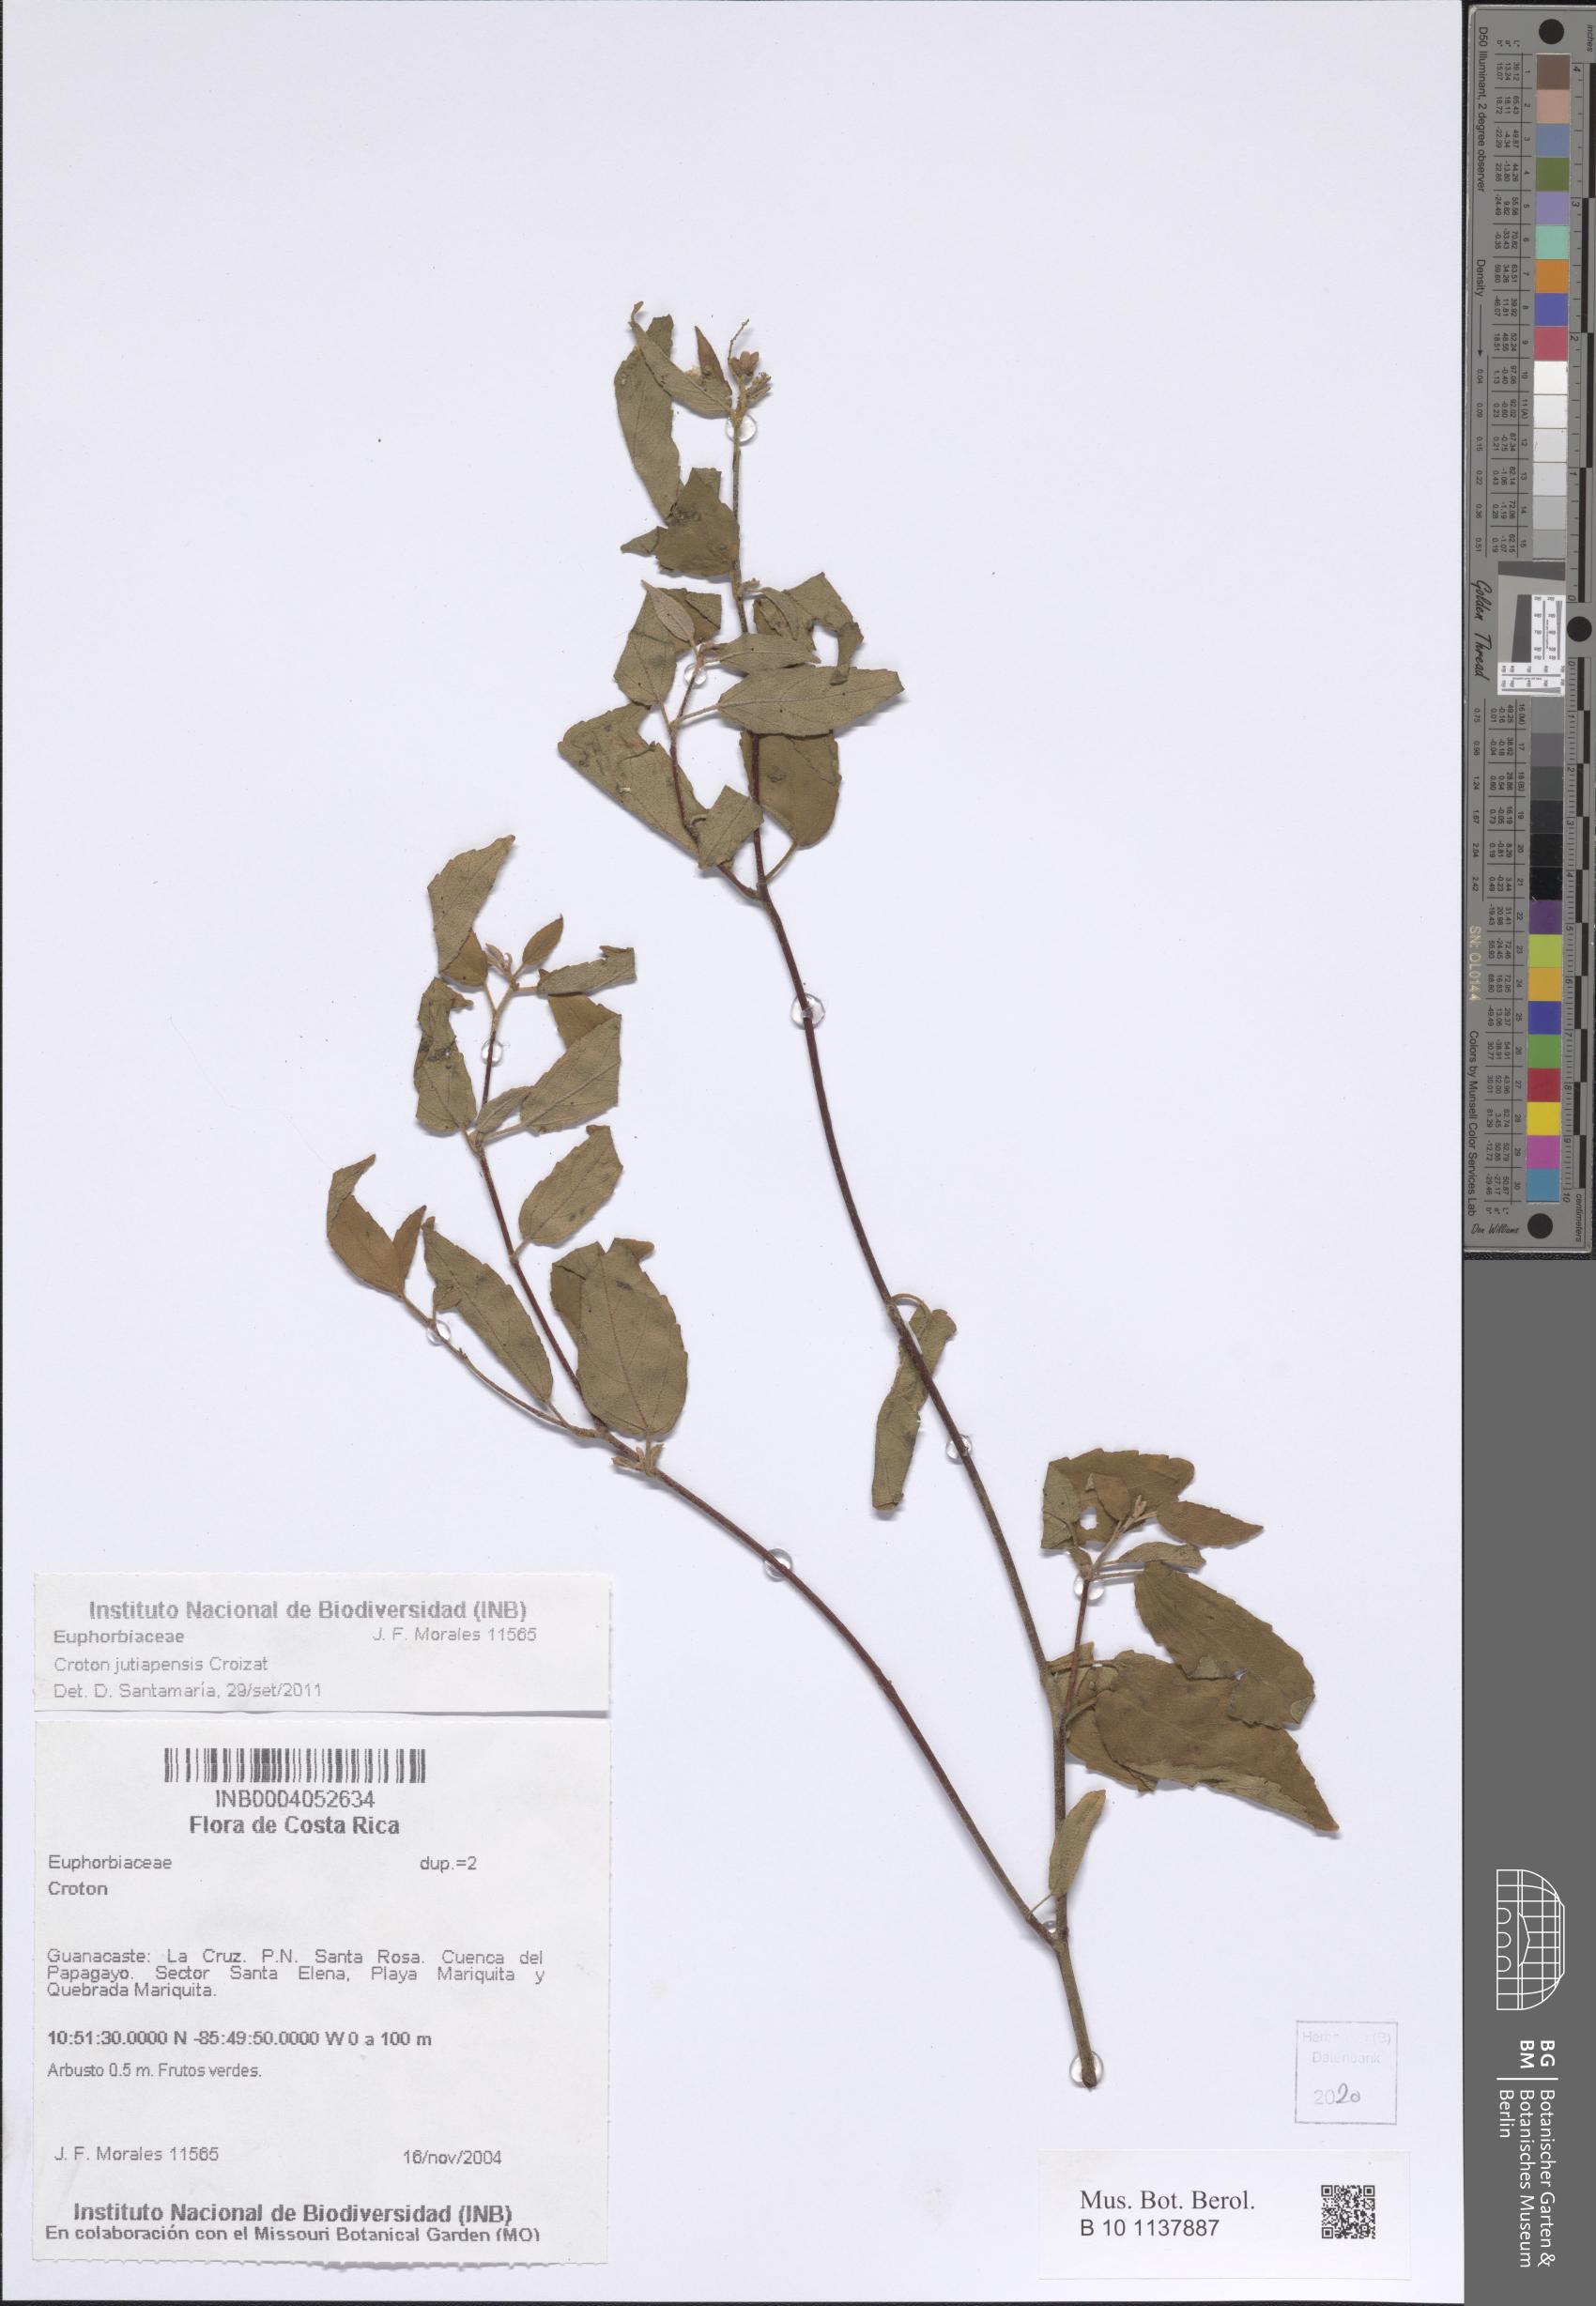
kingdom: Plantae
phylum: Tracheophyta
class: Magnoliopsida
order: Malpighiales
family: Euphorbiaceae
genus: Croton
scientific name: Croton jutiapensis
